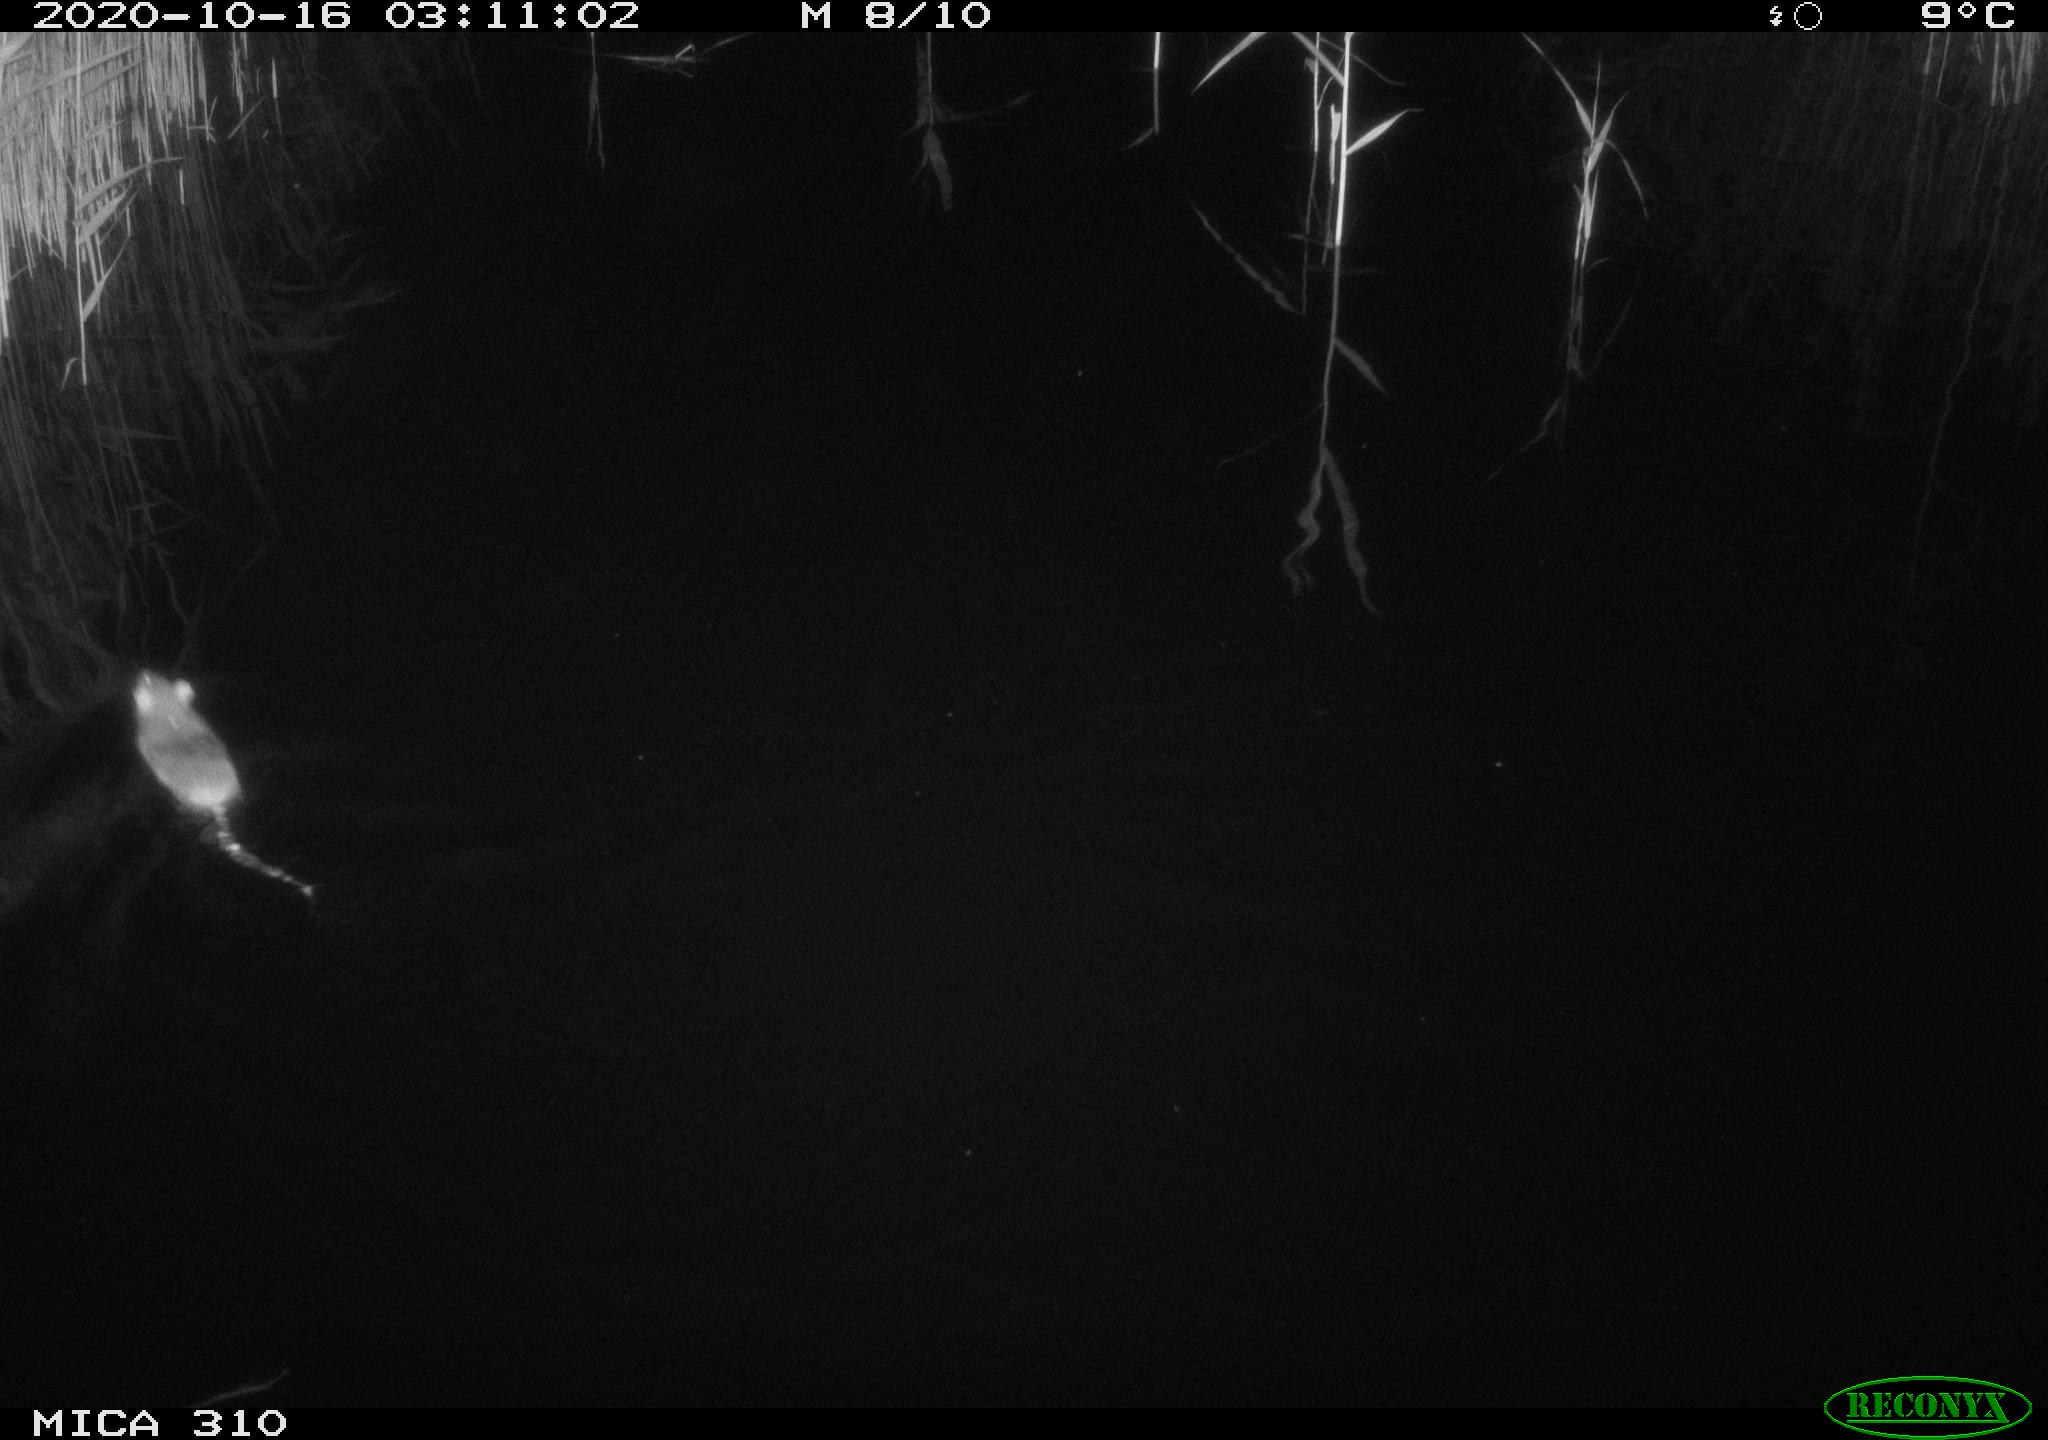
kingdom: Animalia
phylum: Chordata
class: Mammalia
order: Rodentia
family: Muridae
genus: Rattus
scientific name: Rattus norvegicus
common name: Brown rat
